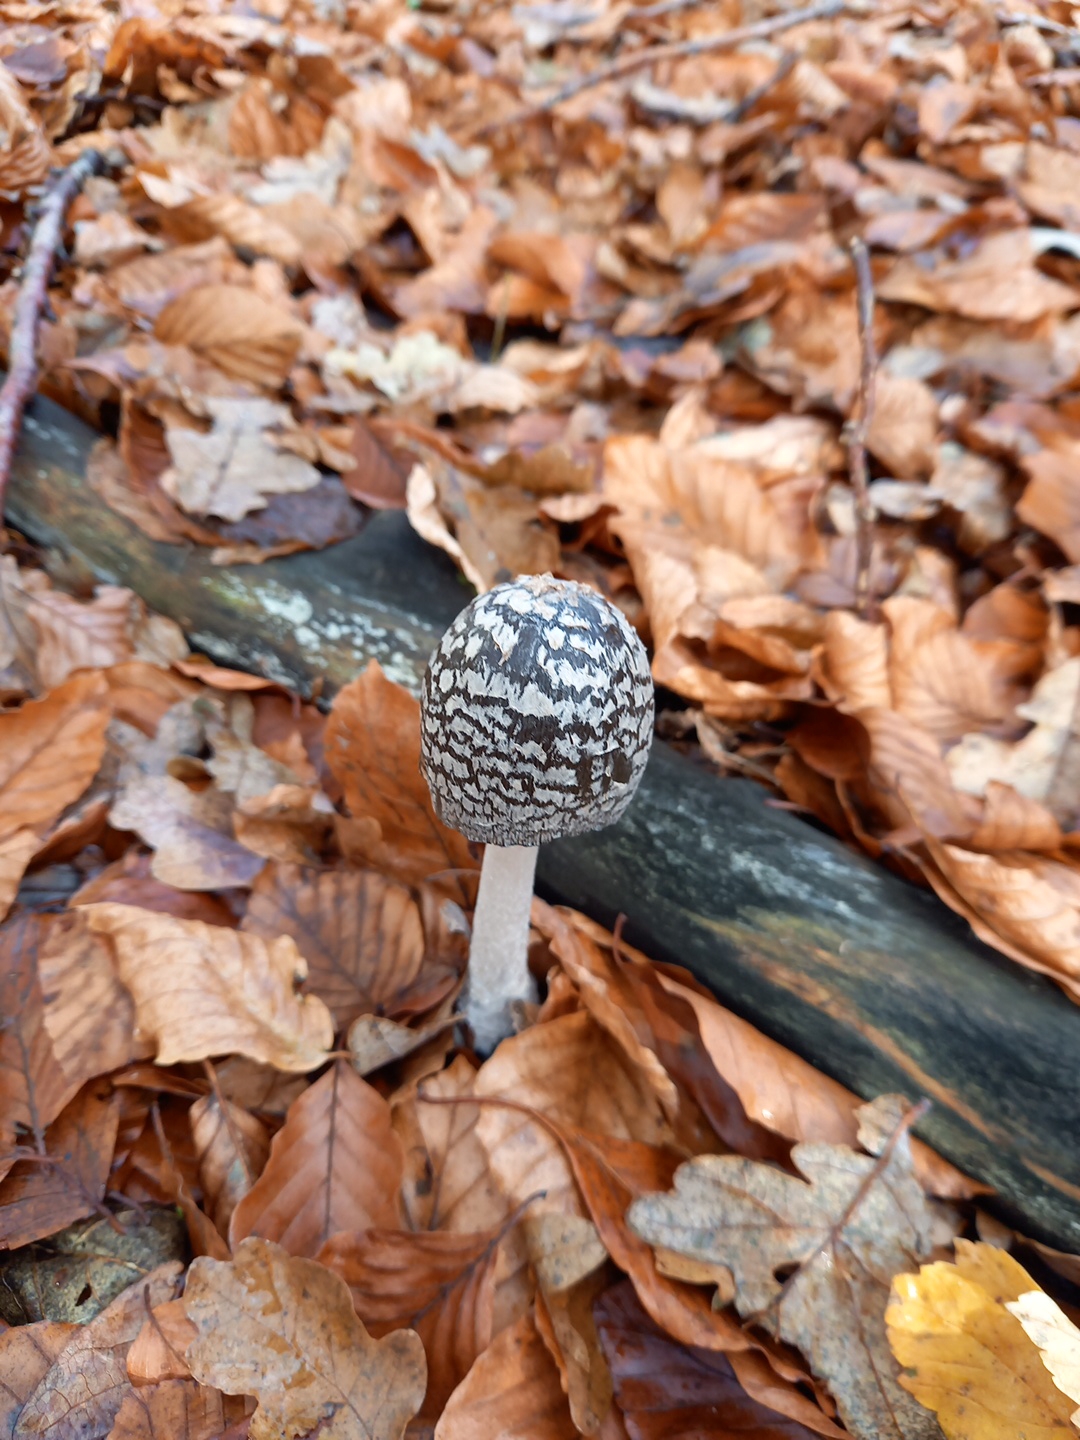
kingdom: Fungi
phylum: Basidiomycota
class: Agaricomycetes
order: Agaricales
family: Psathyrellaceae
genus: Coprinopsis
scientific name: Coprinopsis picacea
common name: skade-blækhat
